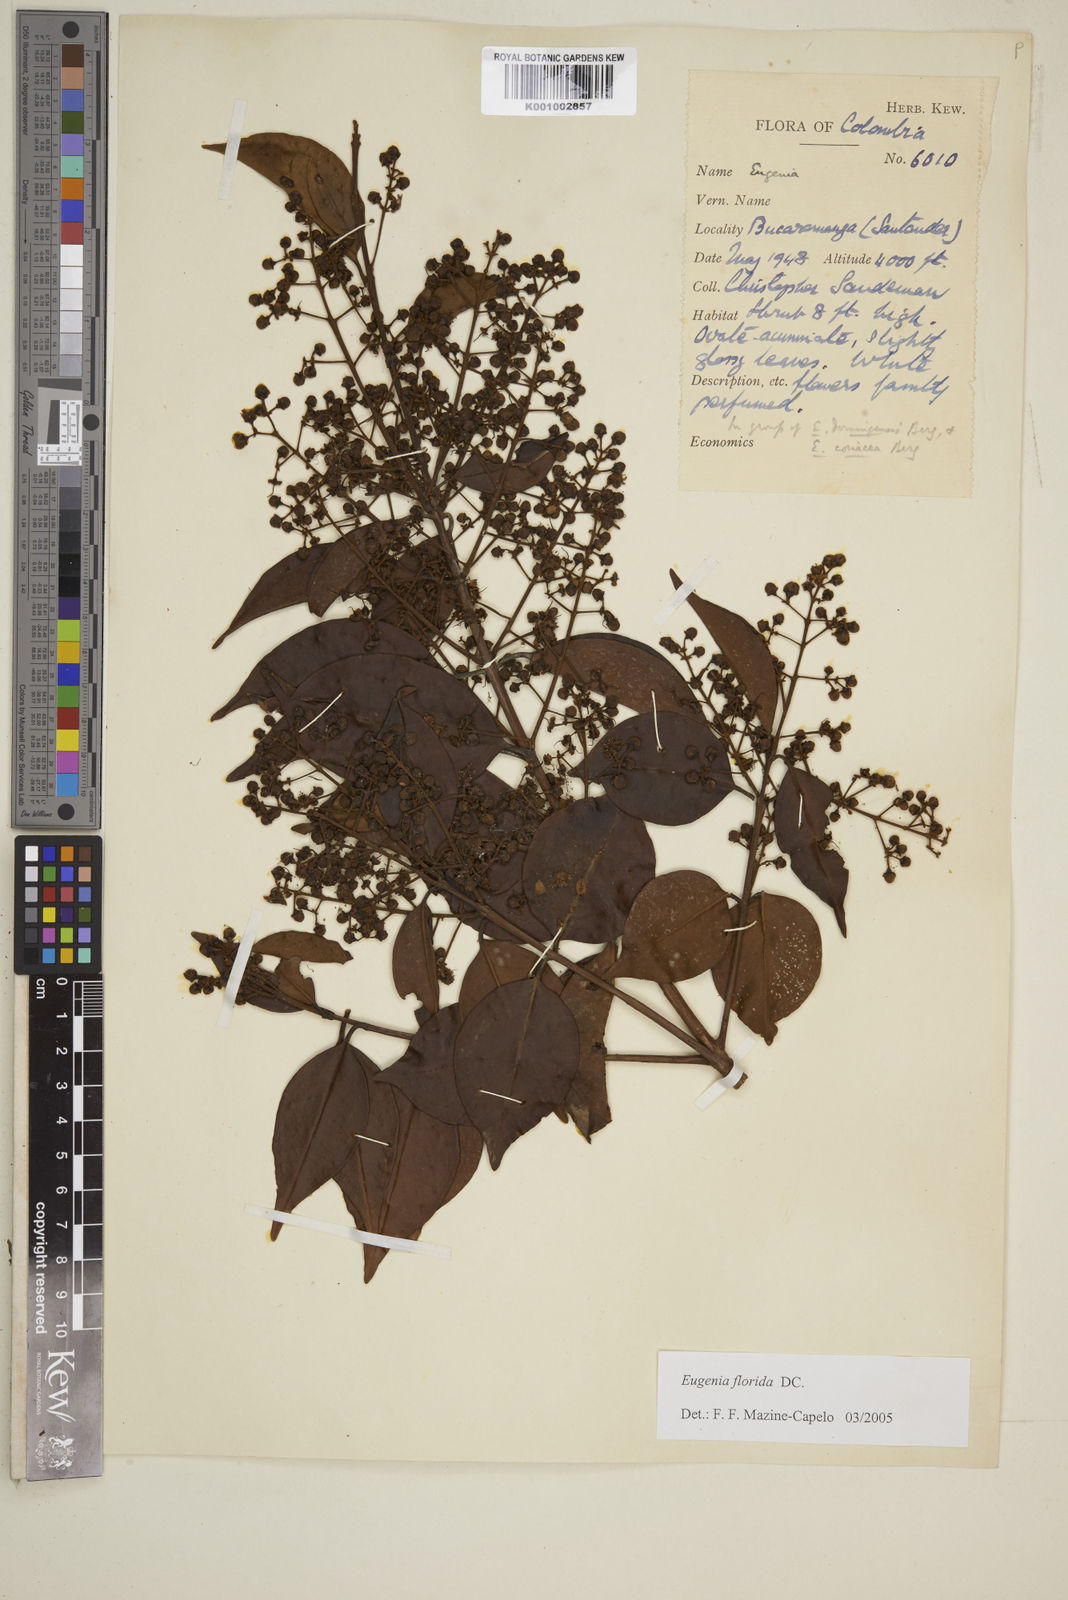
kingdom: Plantae
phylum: Tracheophyta
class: Magnoliopsida
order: Myrtales
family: Myrtaceae
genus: Eugenia
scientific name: Eugenia florida
